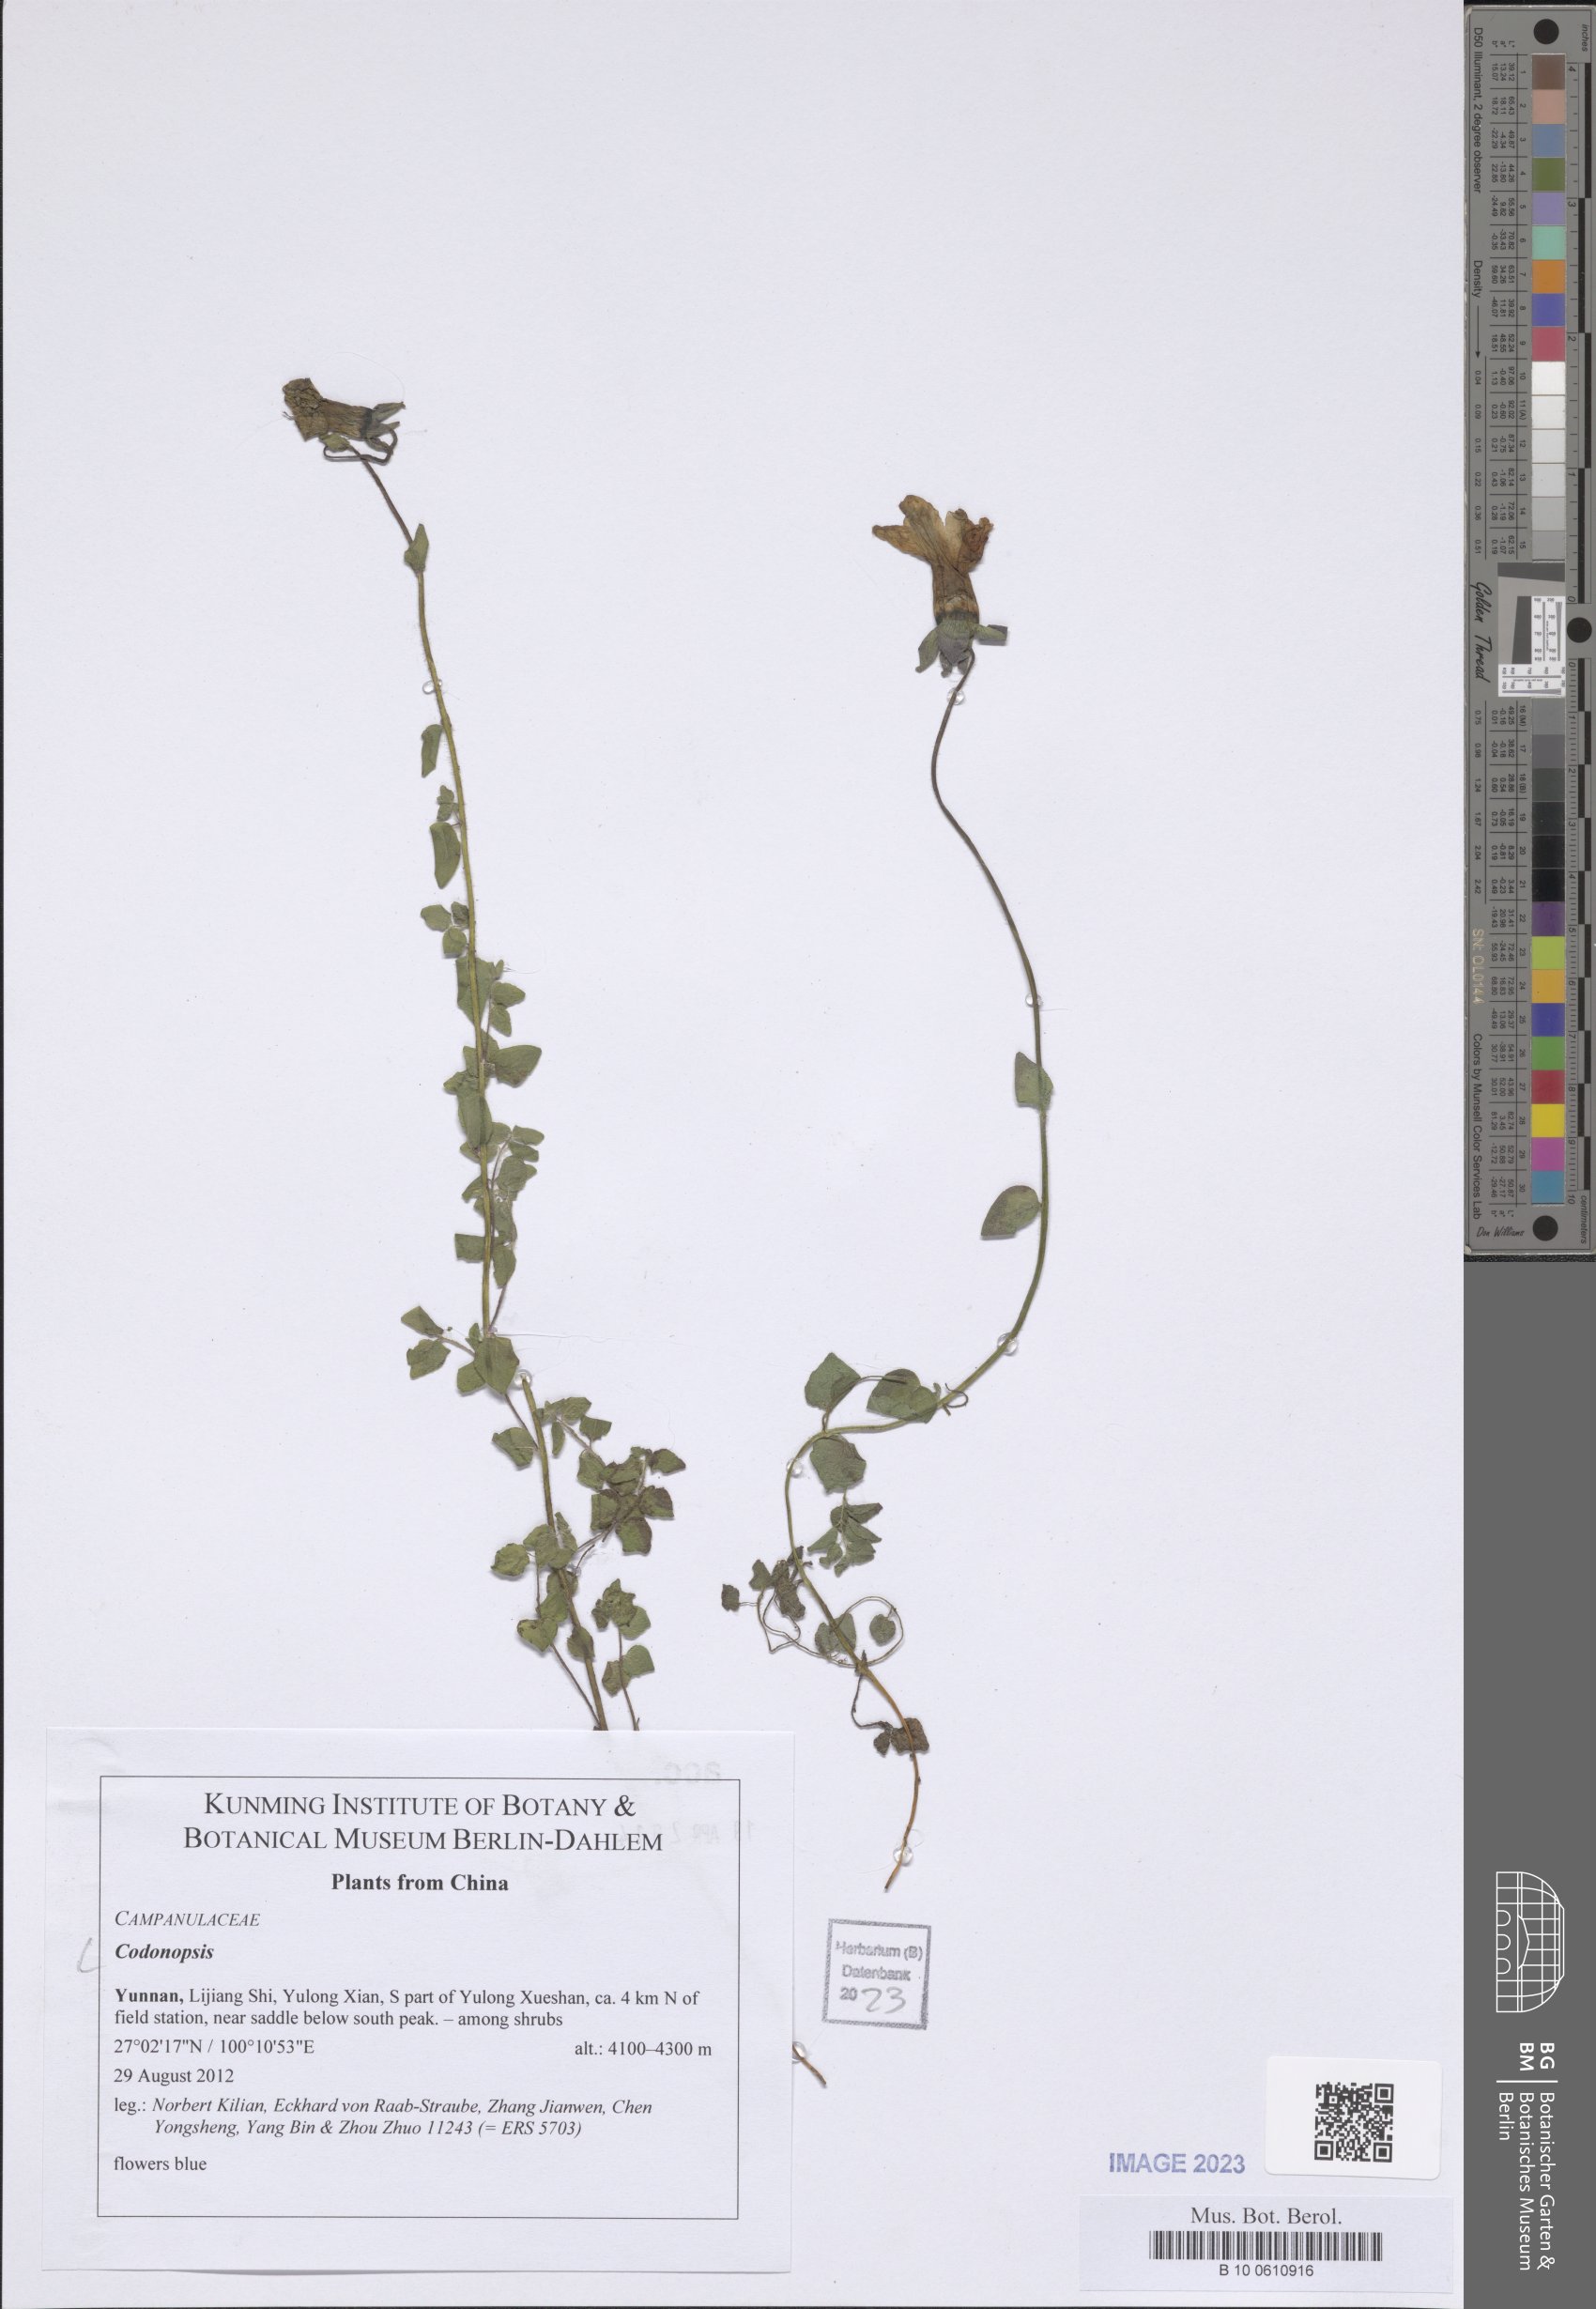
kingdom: Plantae
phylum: Tracheophyta
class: Magnoliopsida
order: Asterales
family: Campanulaceae
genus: Codonopsis
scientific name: Codonopsis
